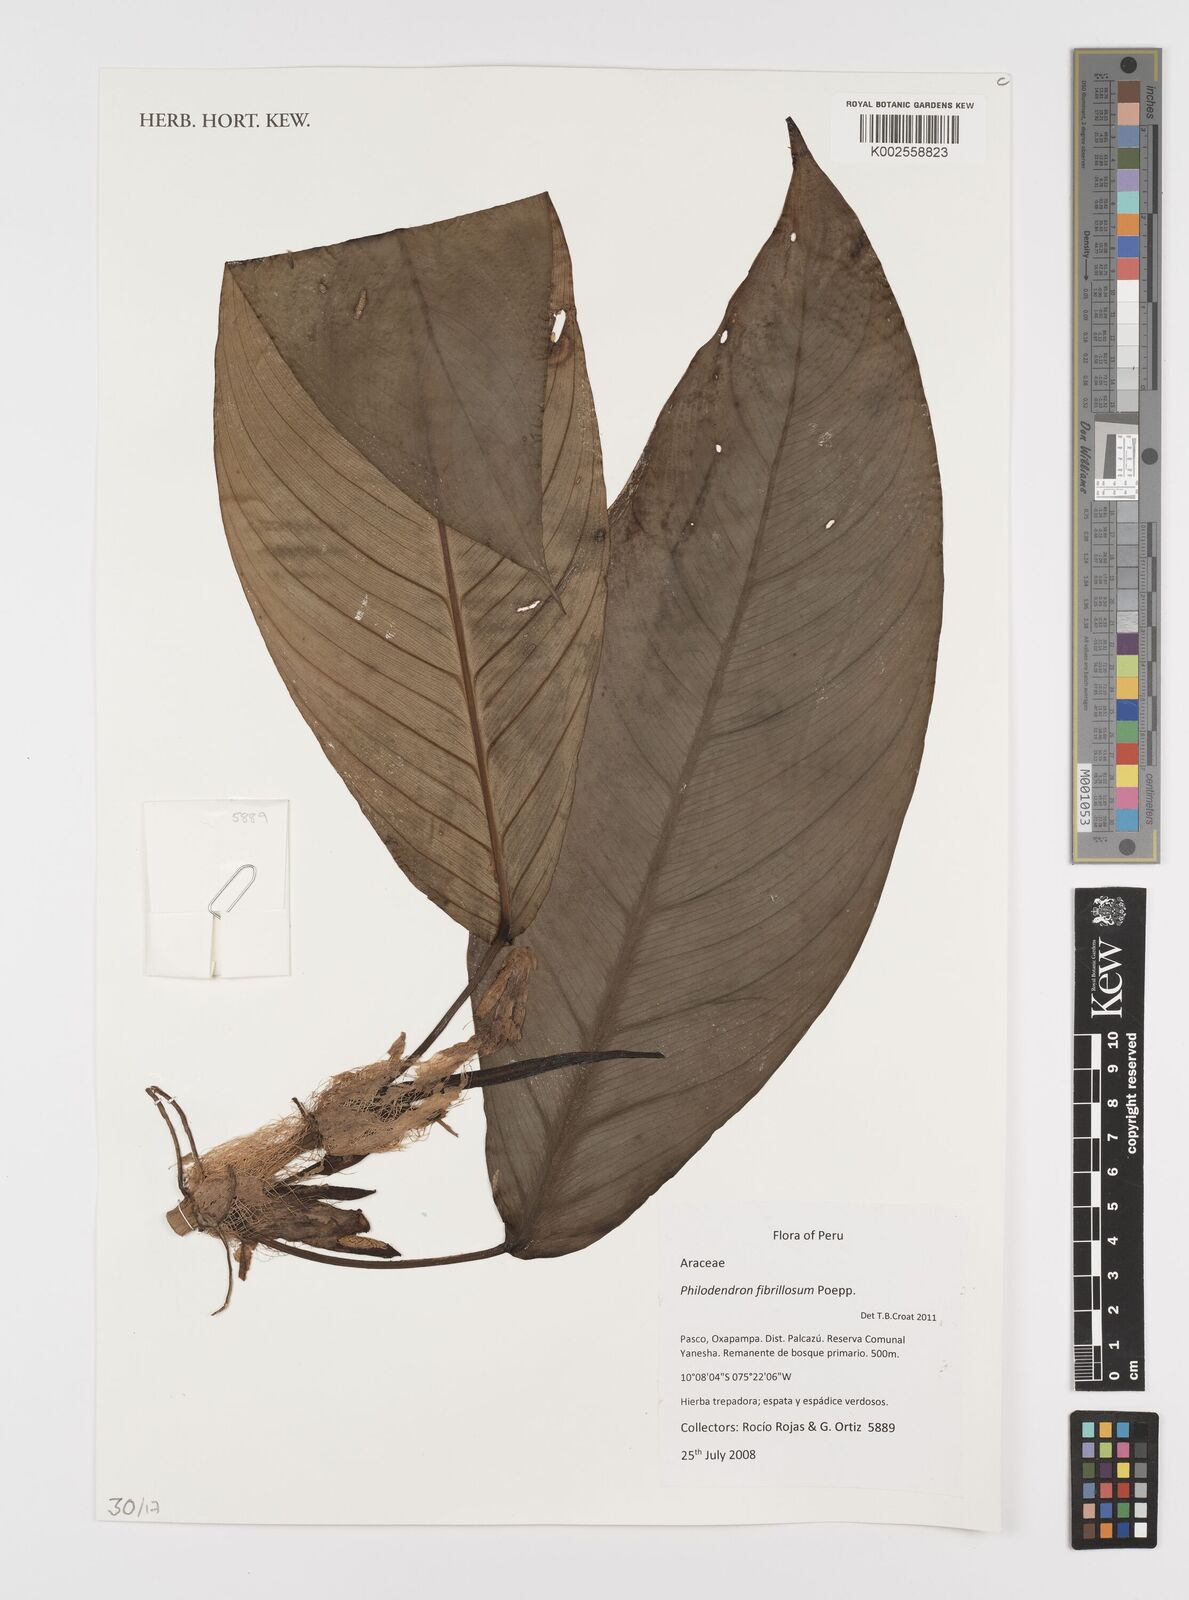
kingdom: Plantae
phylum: Tracheophyta
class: Liliopsida
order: Alismatales
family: Araceae
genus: Philodendron
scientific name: Philodendron fibrillosum
